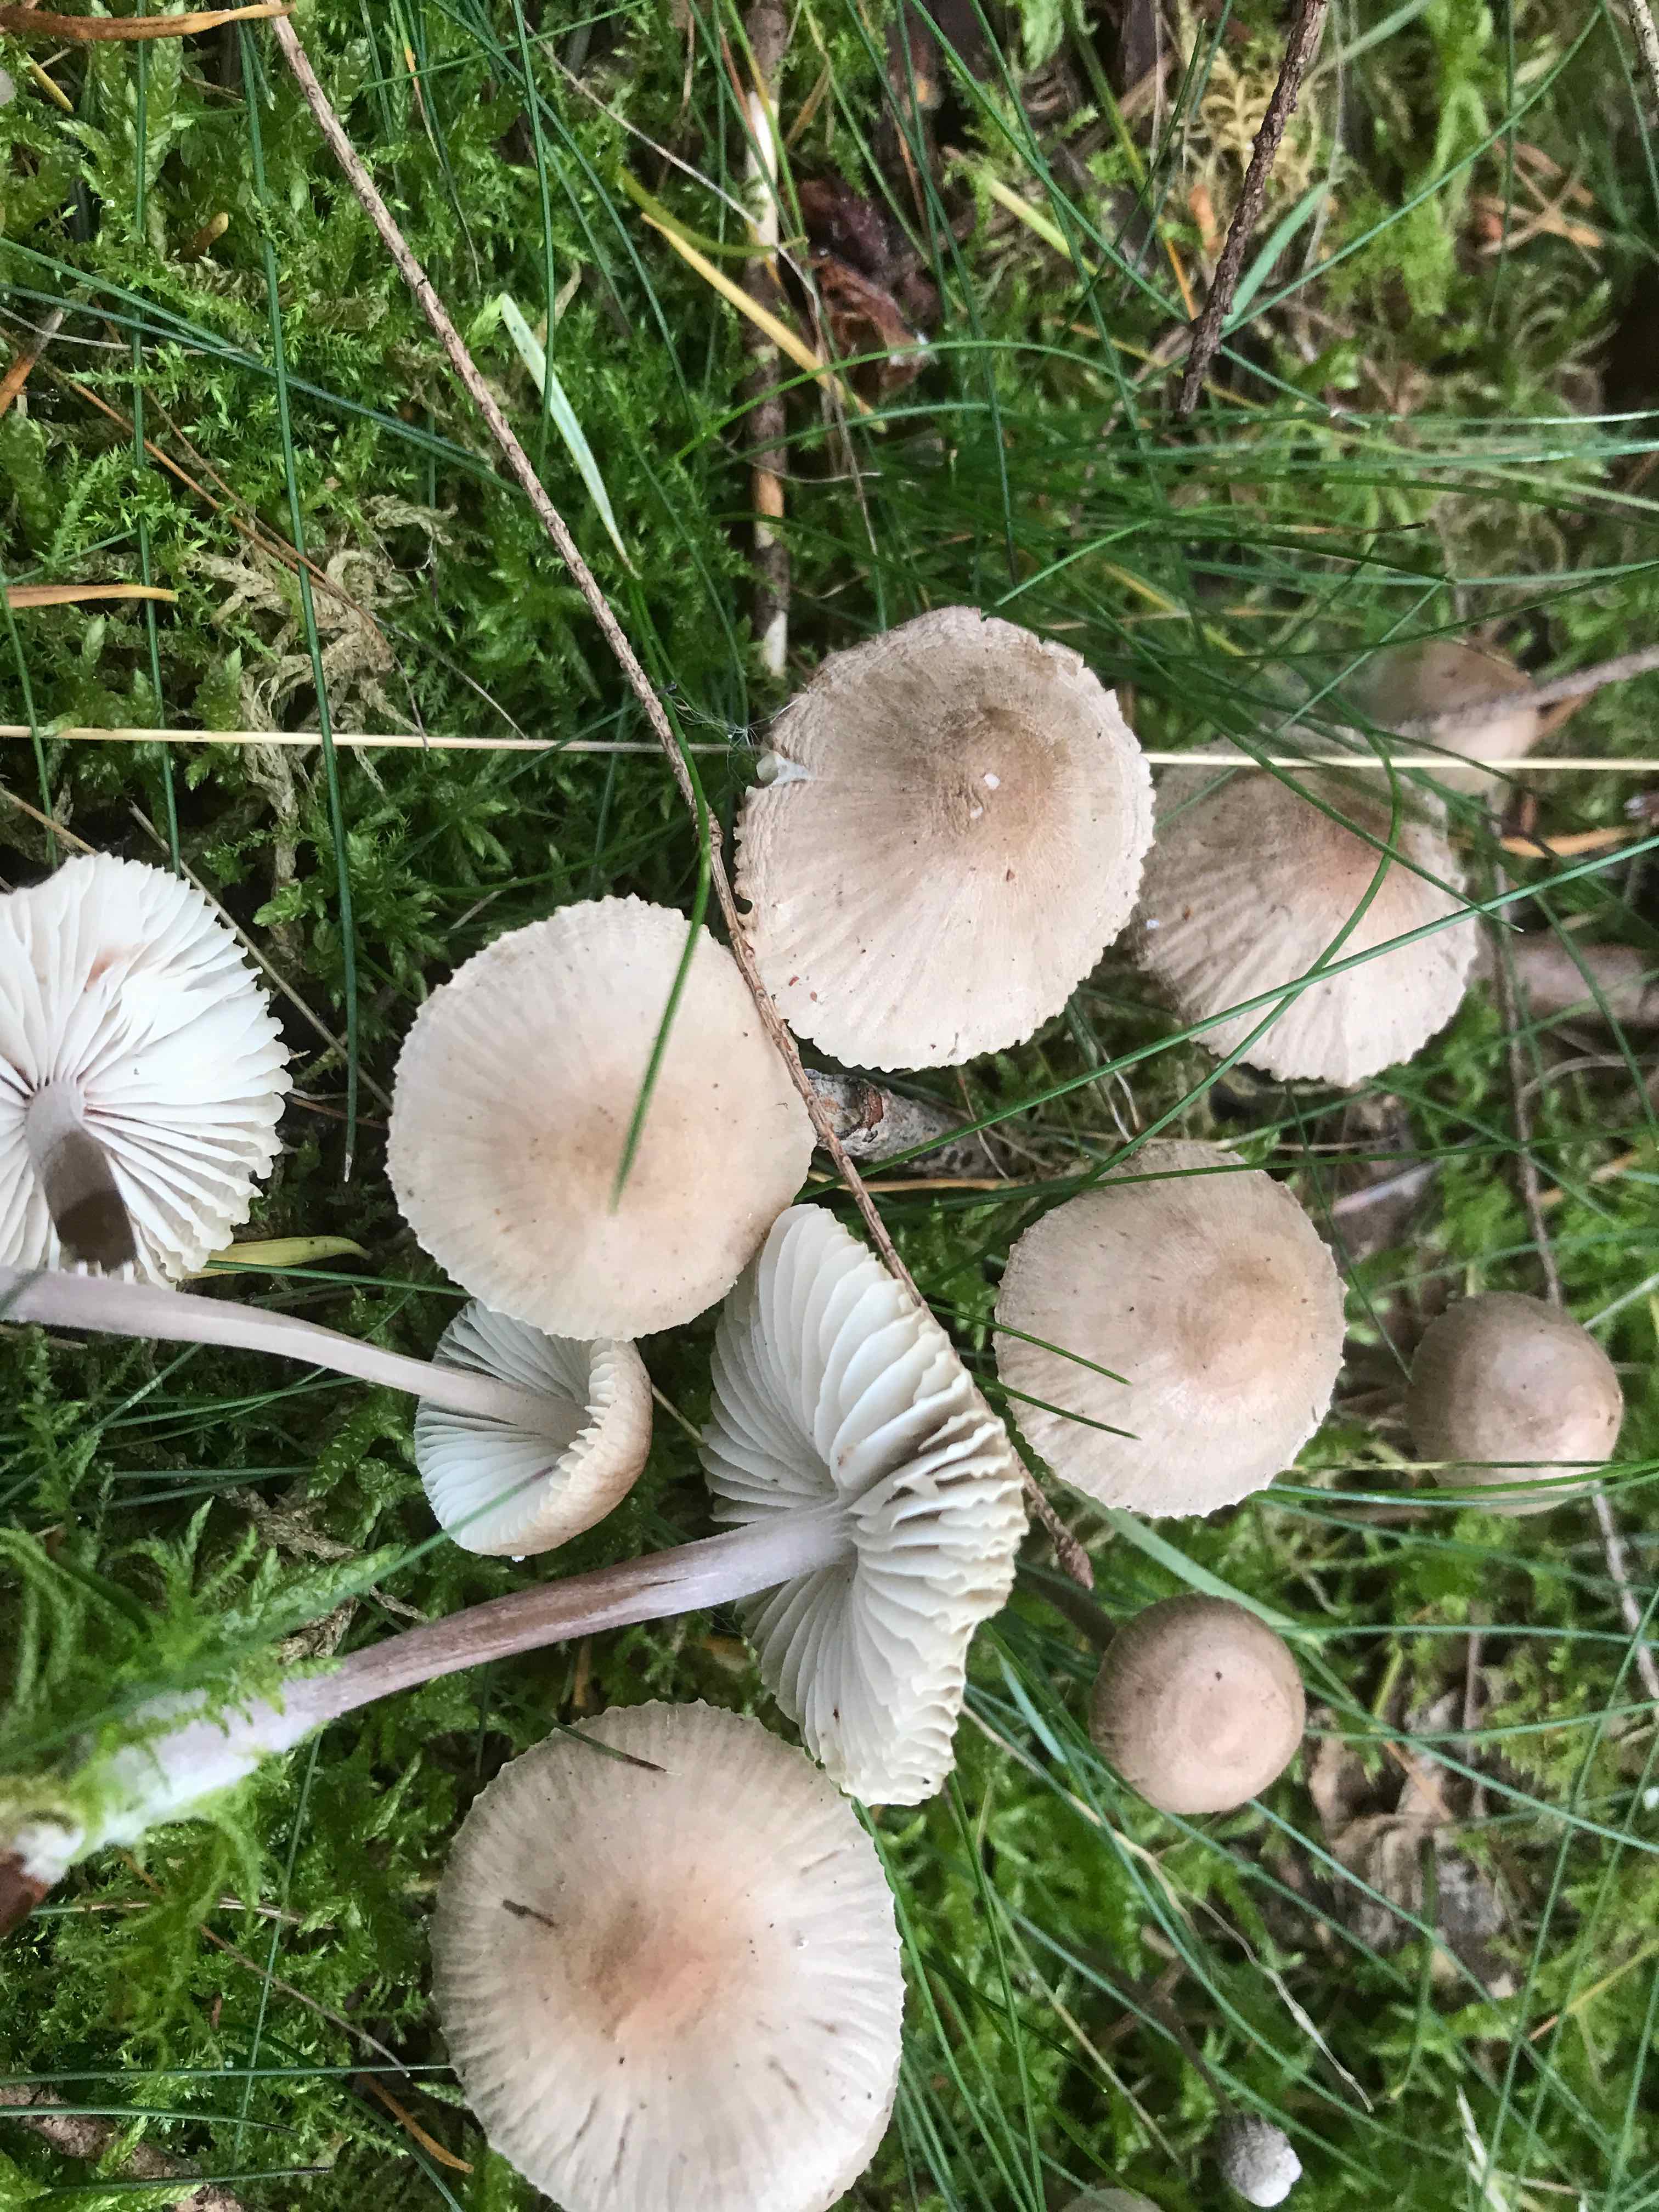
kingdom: Fungi
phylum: Basidiomycota
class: Agaricomycetes
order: Agaricales
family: Mycenaceae
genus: Mycena
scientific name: Mycena zephirus
